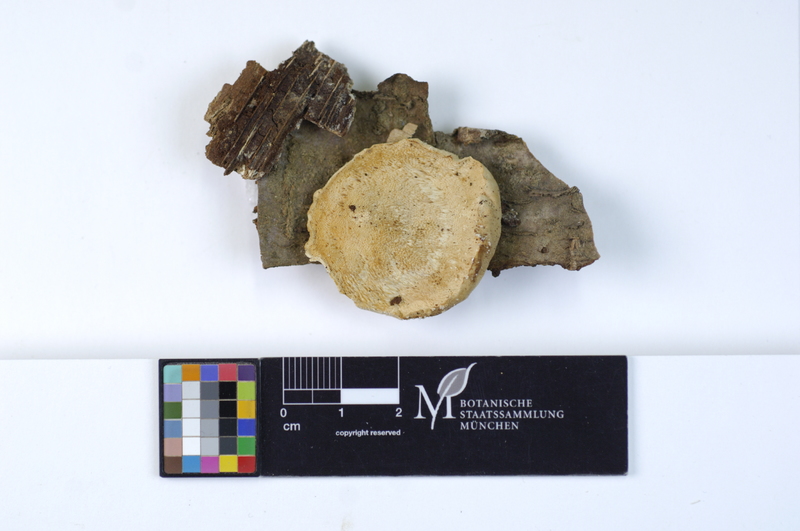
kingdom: Plantae
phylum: Tracheophyta
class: Magnoliopsida
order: Fagales
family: Betulaceae
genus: Corylus
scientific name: Corylus
